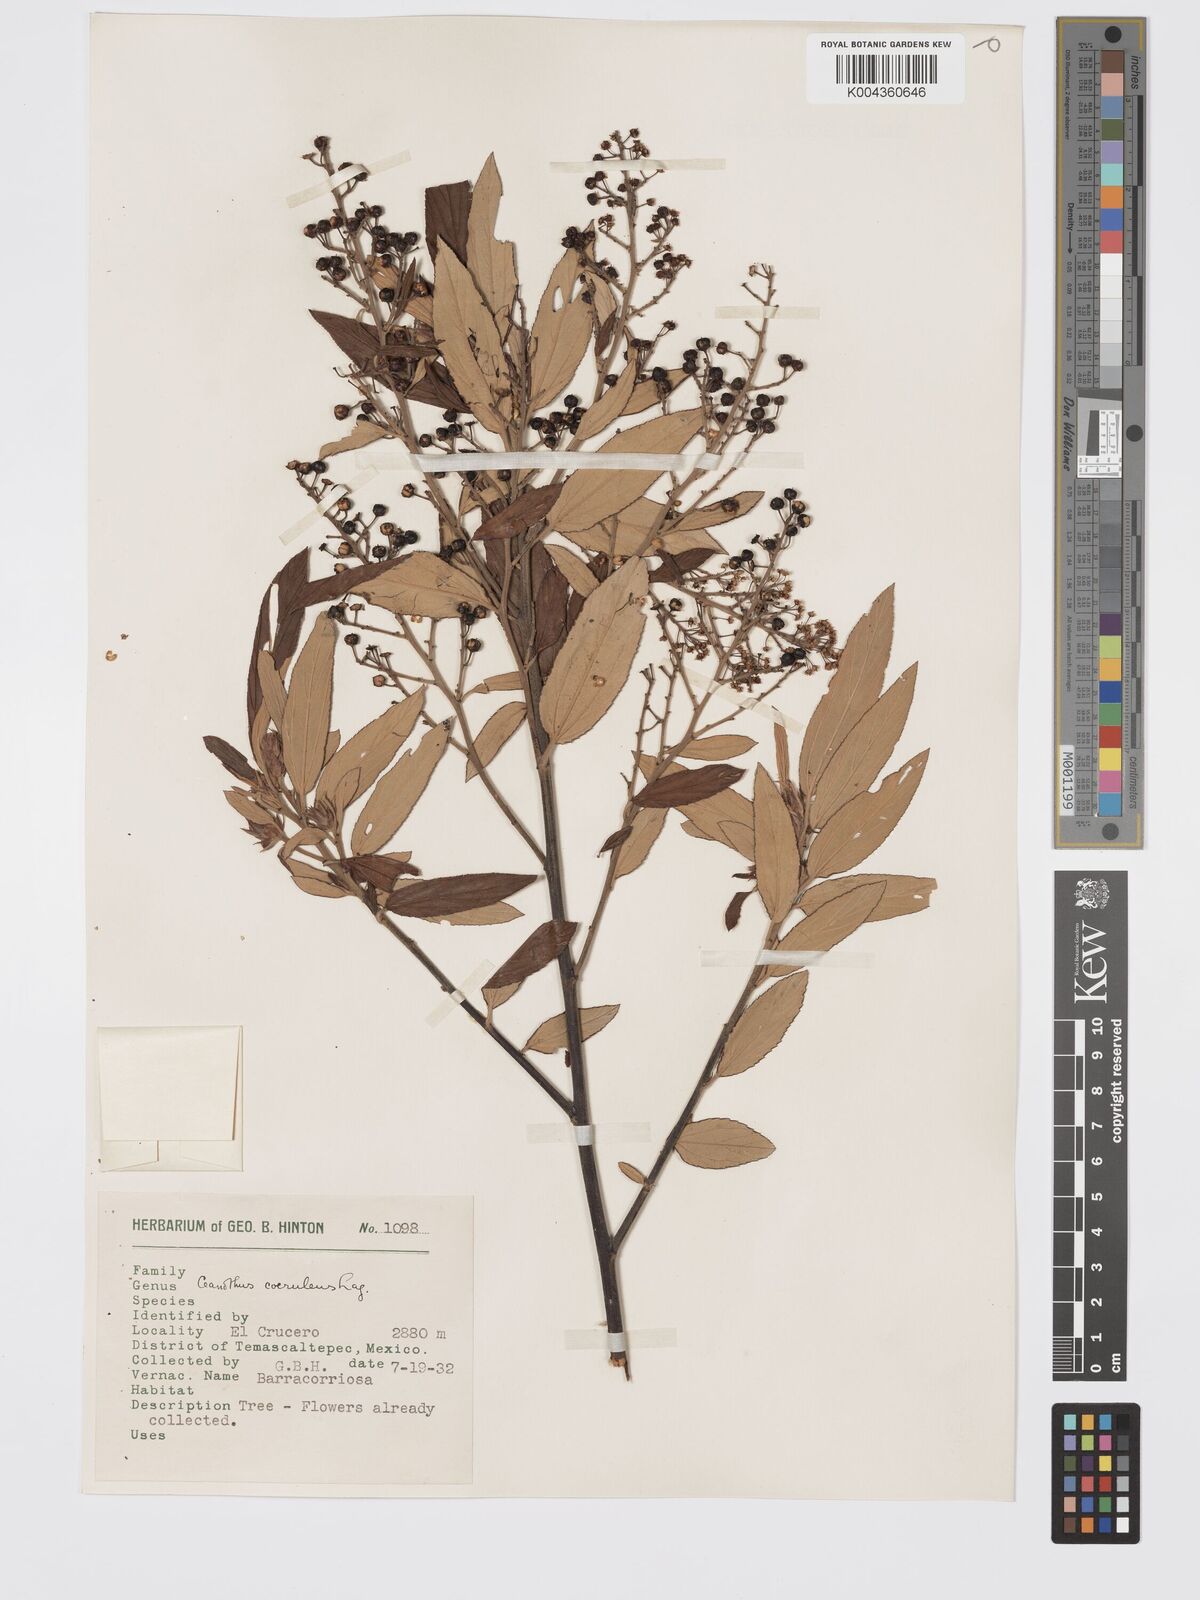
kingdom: Plantae
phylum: Tracheophyta
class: Magnoliopsida
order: Rosales
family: Rhamnaceae
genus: Ceanothus
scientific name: Ceanothus caeruleus
